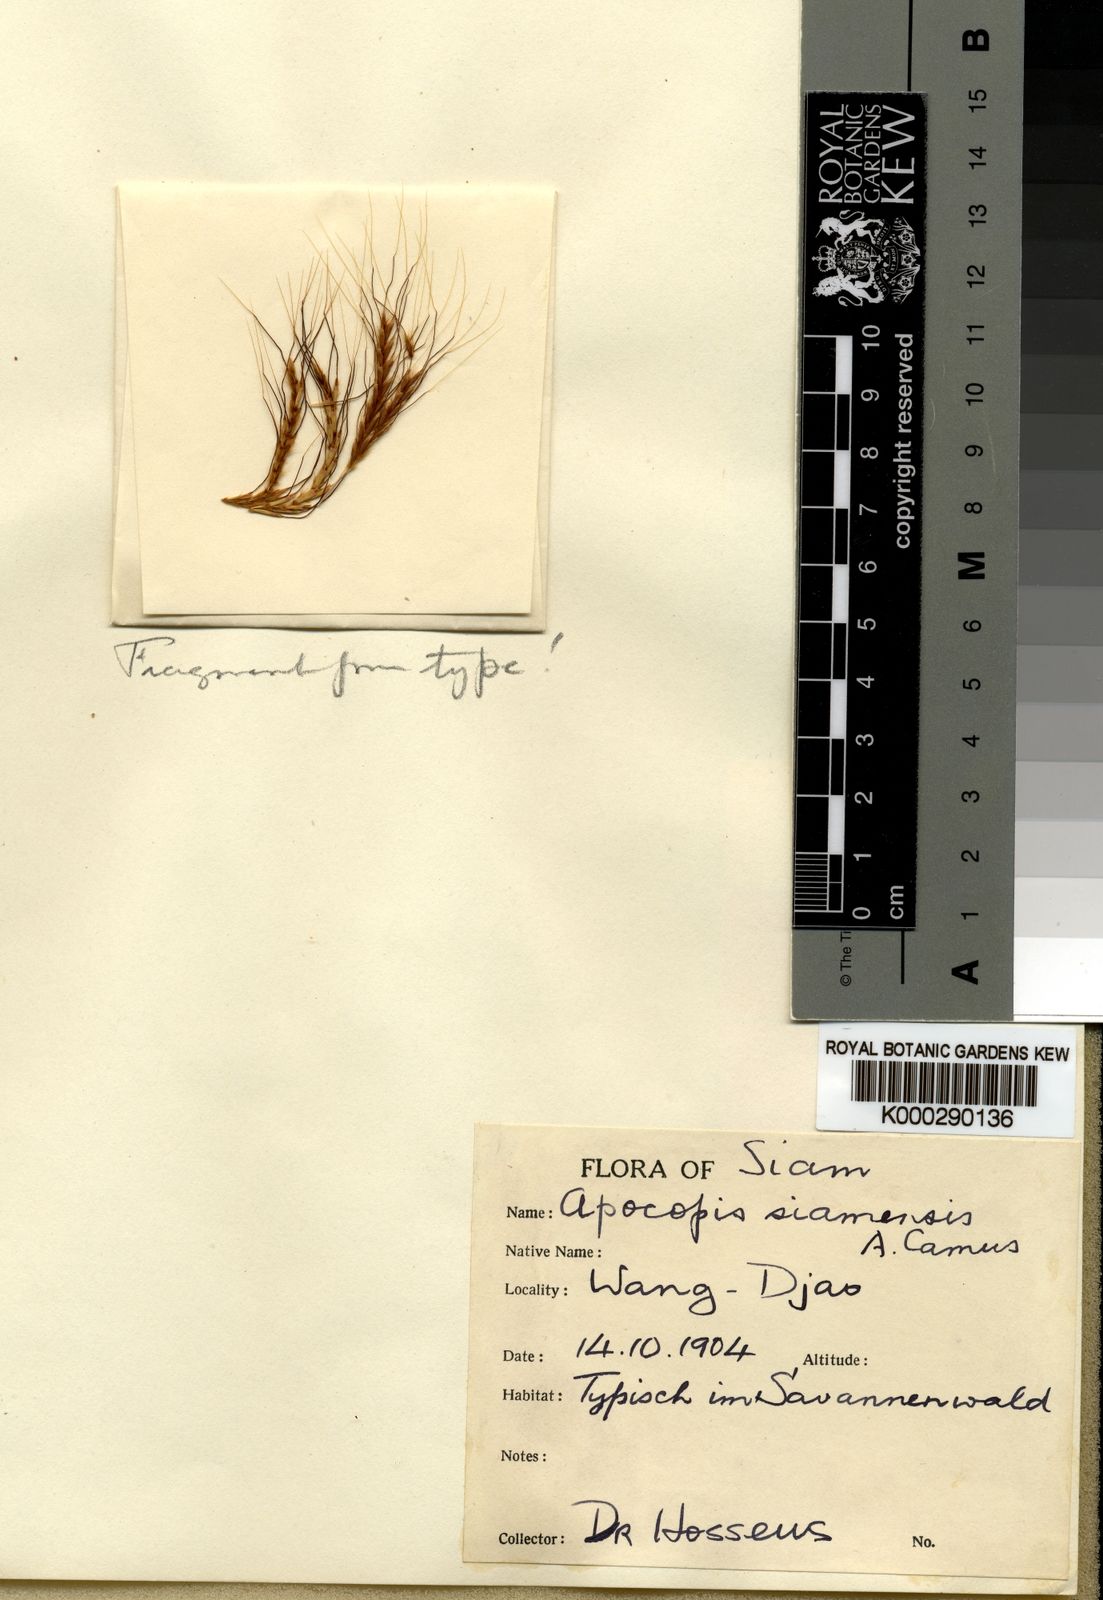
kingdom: Plantae
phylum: Tracheophyta
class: Liliopsida
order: Poales
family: Poaceae
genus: Apocopis
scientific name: Apocopis siamensis
